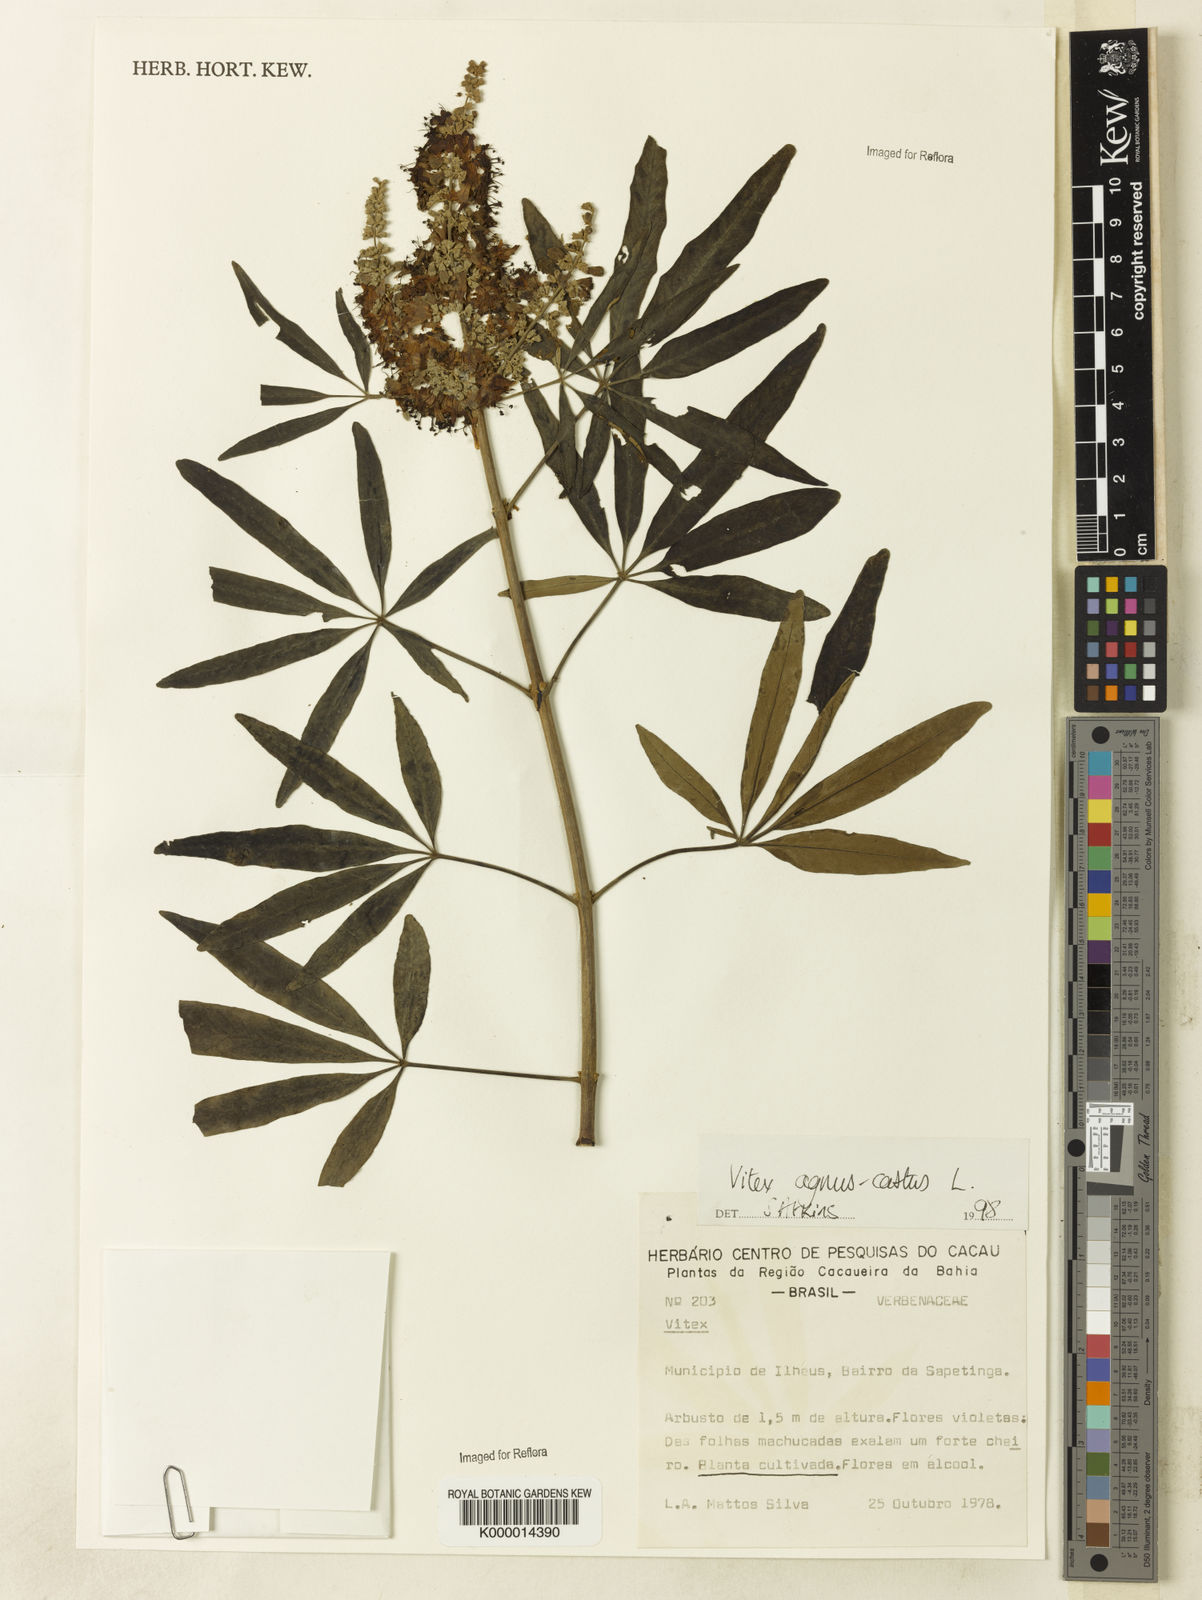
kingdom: Plantae
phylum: Tracheophyta
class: Magnoliopsida
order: Lamiales
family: Lamiaceae
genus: Vitex
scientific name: Vitex agnus-castus
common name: Chasteberry
